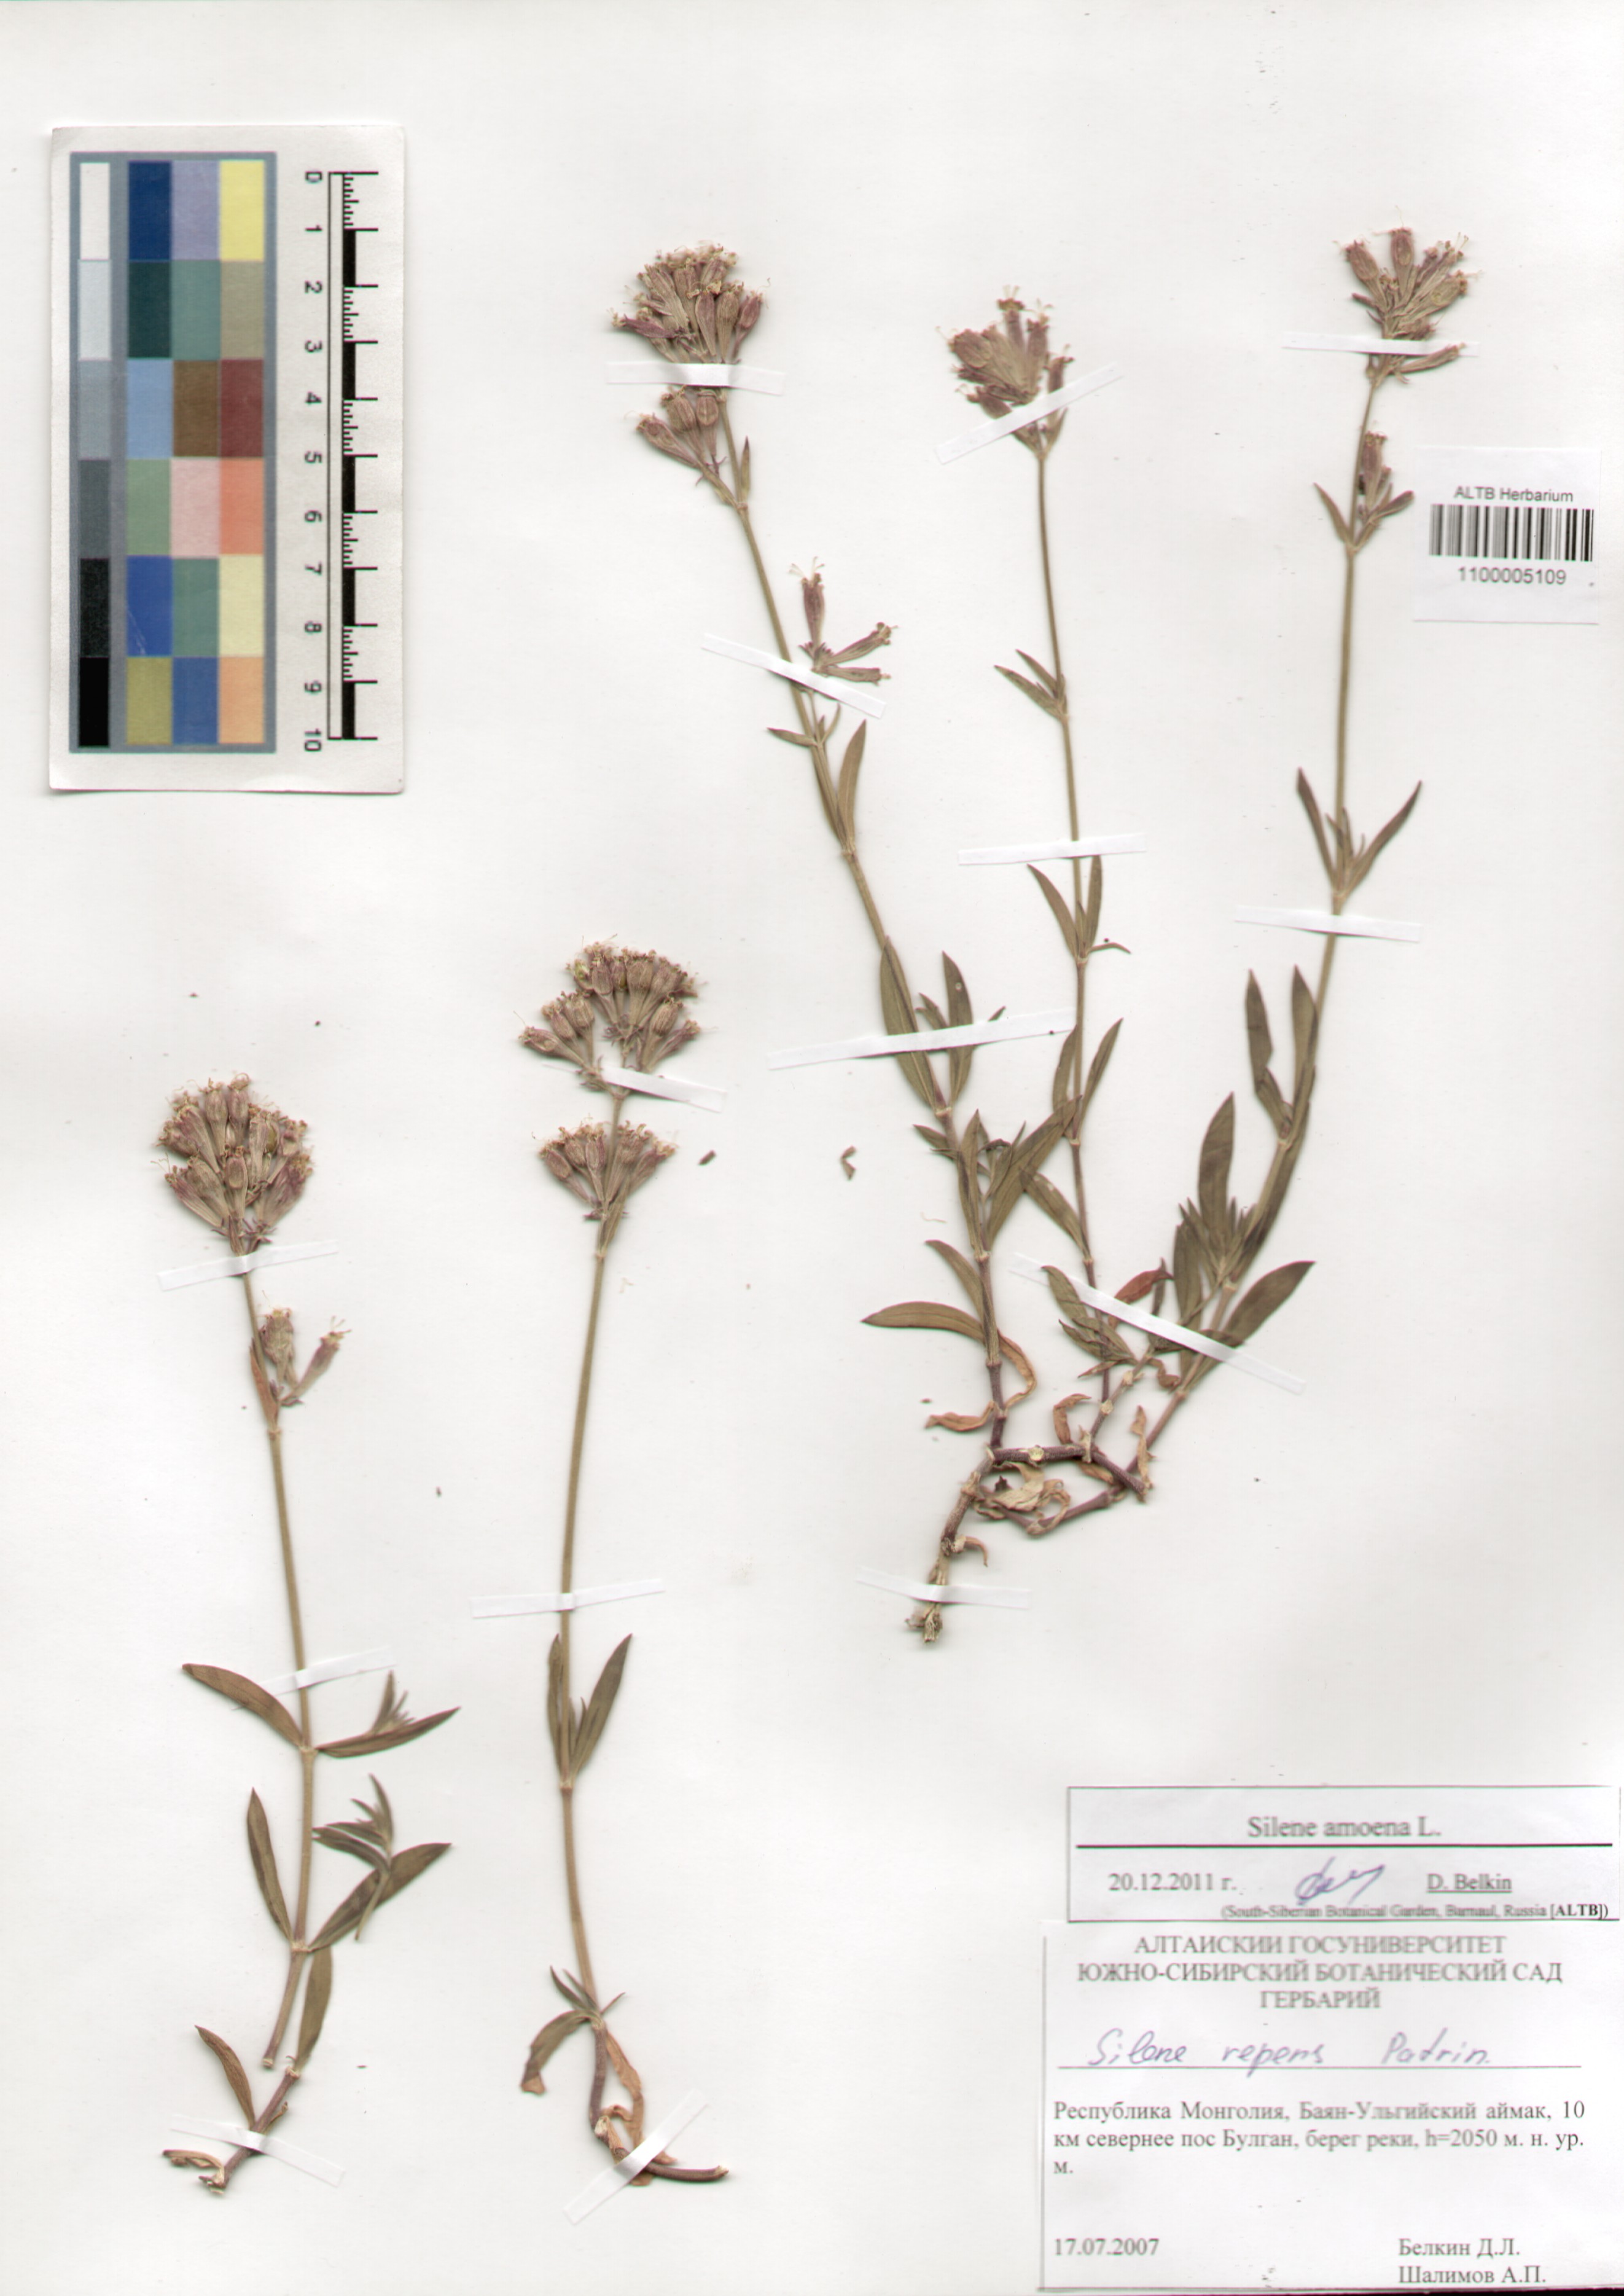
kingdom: Plantae
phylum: Tracheophyta
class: Magnoliopsida
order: Caryophyllales
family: Caryophyllaceae
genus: Silene
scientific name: Silene amoena
